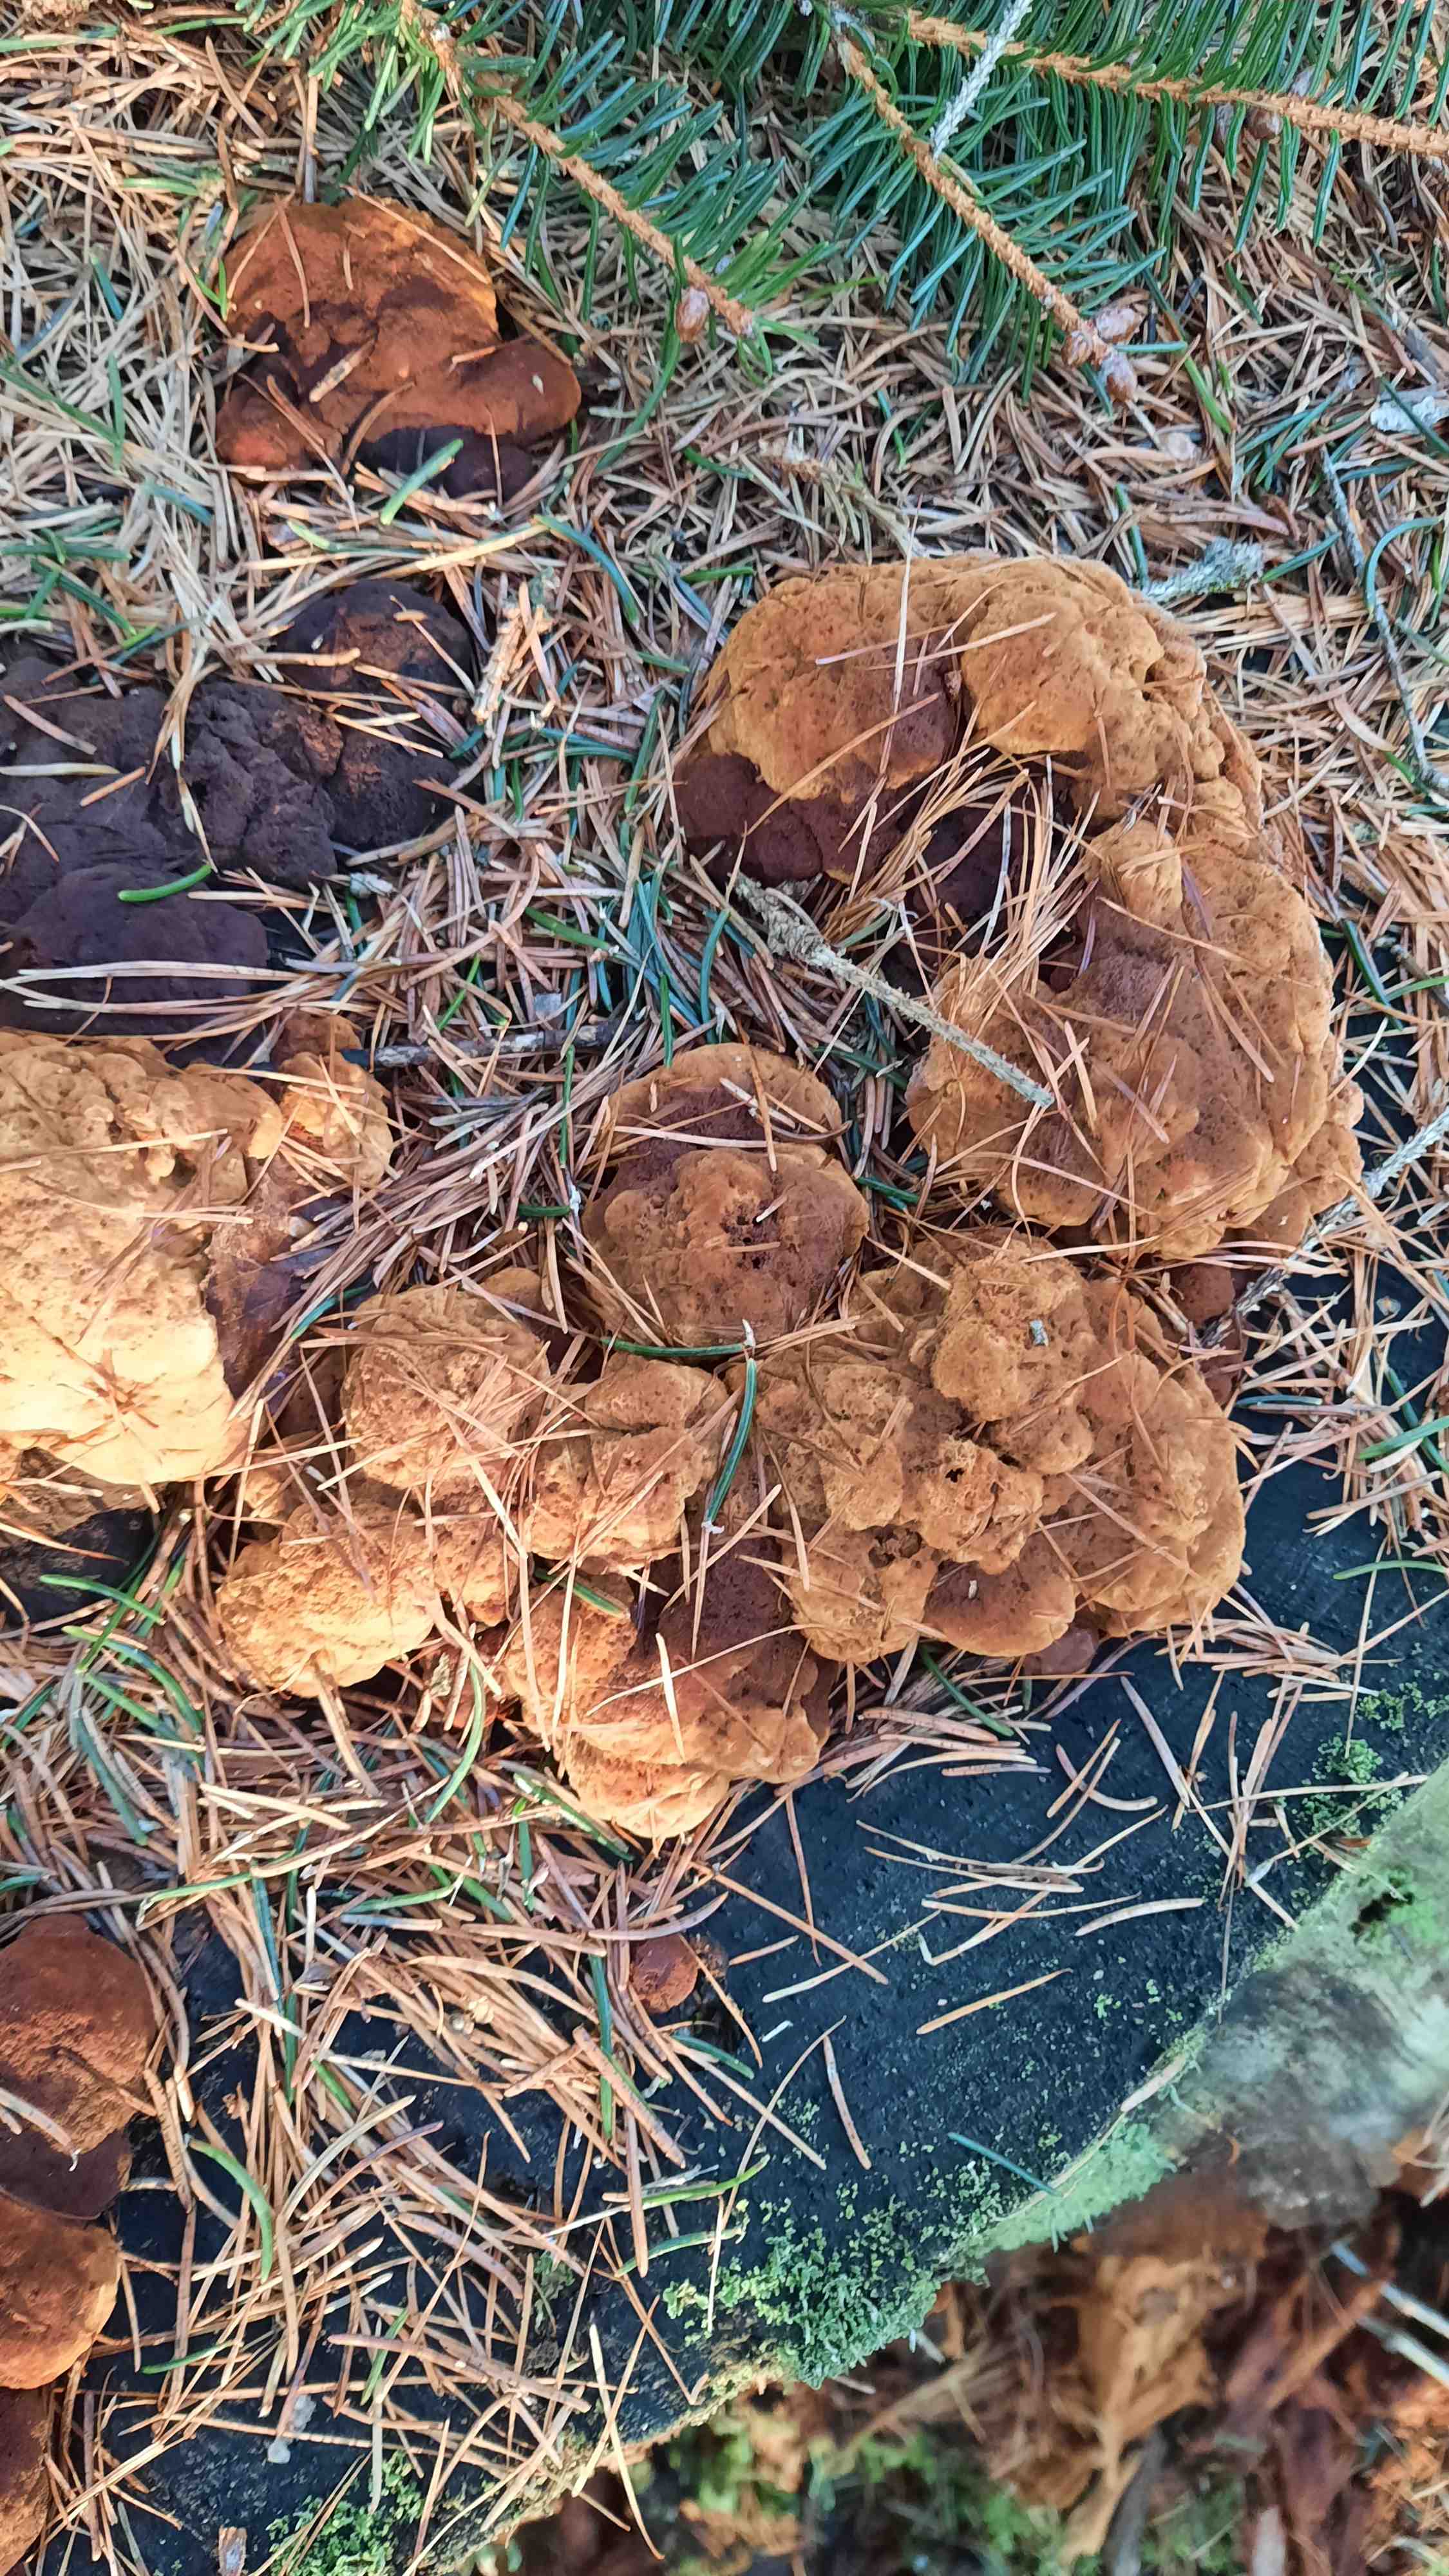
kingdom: Fungi
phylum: Basidiomycota
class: Agaricomycetes
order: Gloeophyllales
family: Gloeophyllaceae
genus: Gloeophyllum
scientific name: Gloeophyllum odoratum
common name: duftende korkhat
